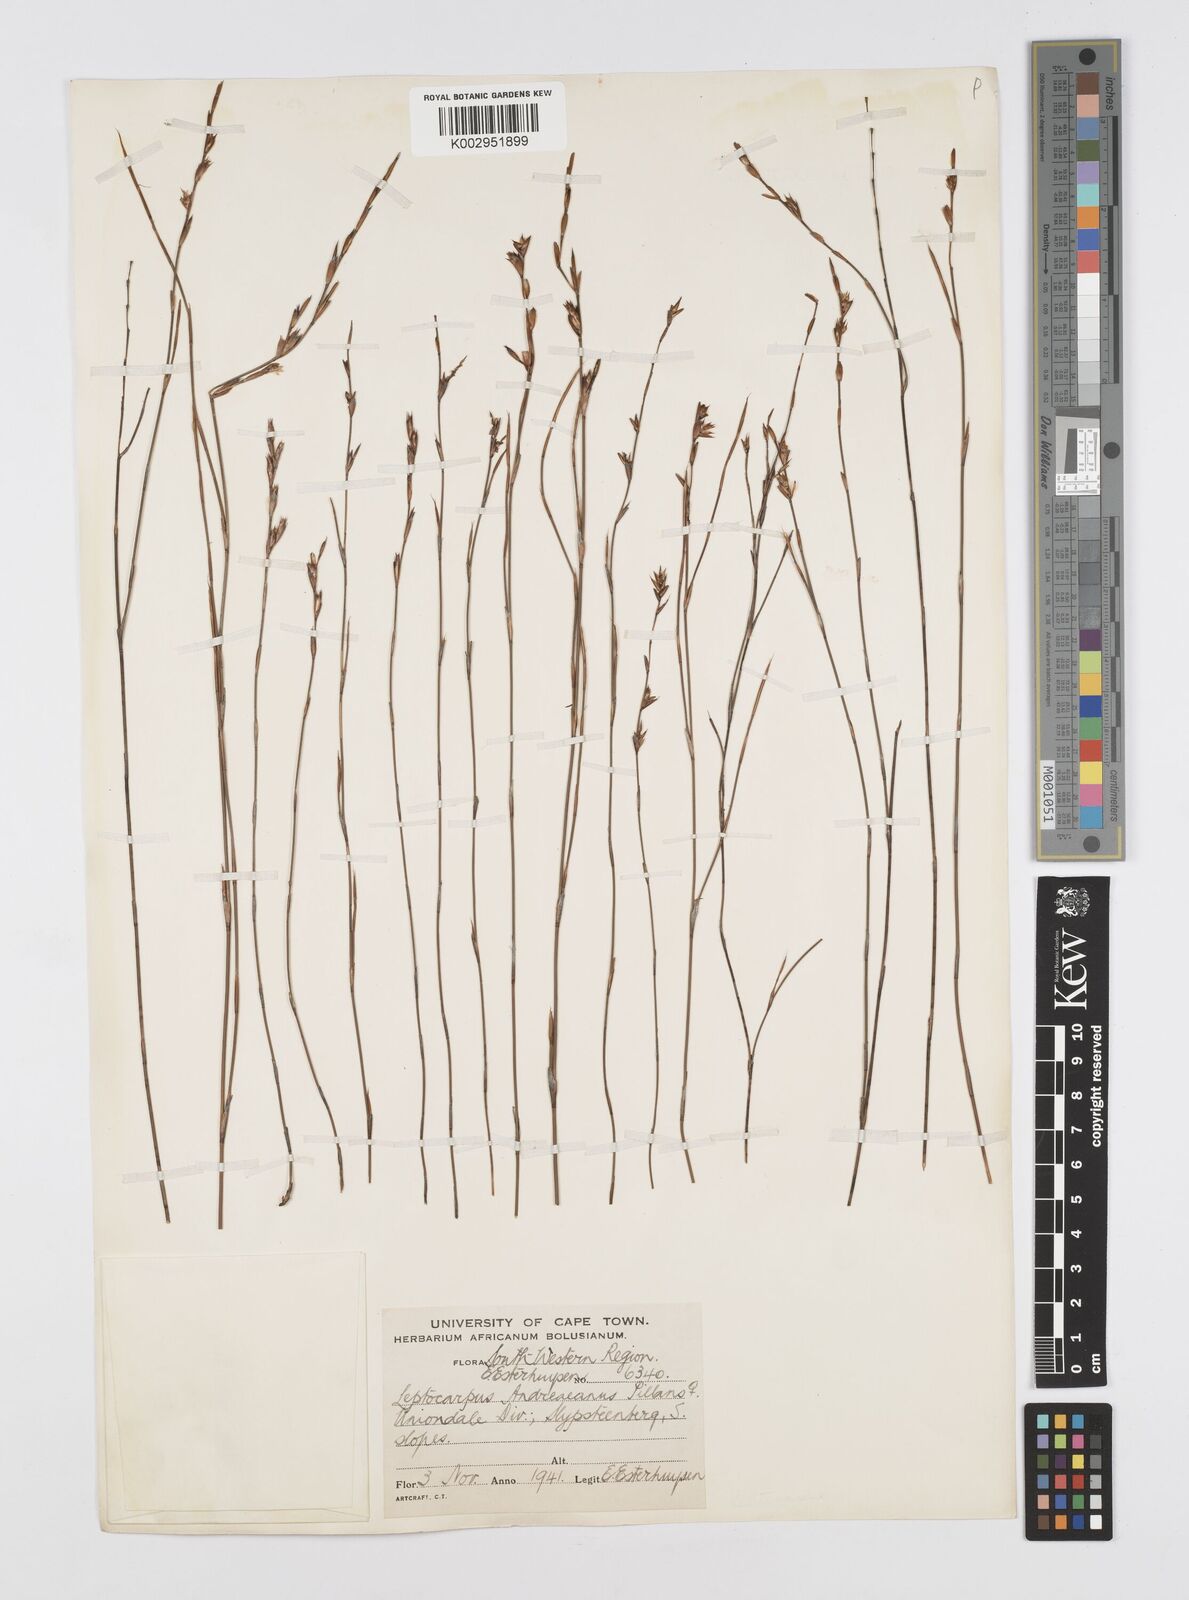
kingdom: Plantae
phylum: Tracheophyta
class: Liliopsida
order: Poales
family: Restionaceae
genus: Restio
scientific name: Restio andreaeanus
